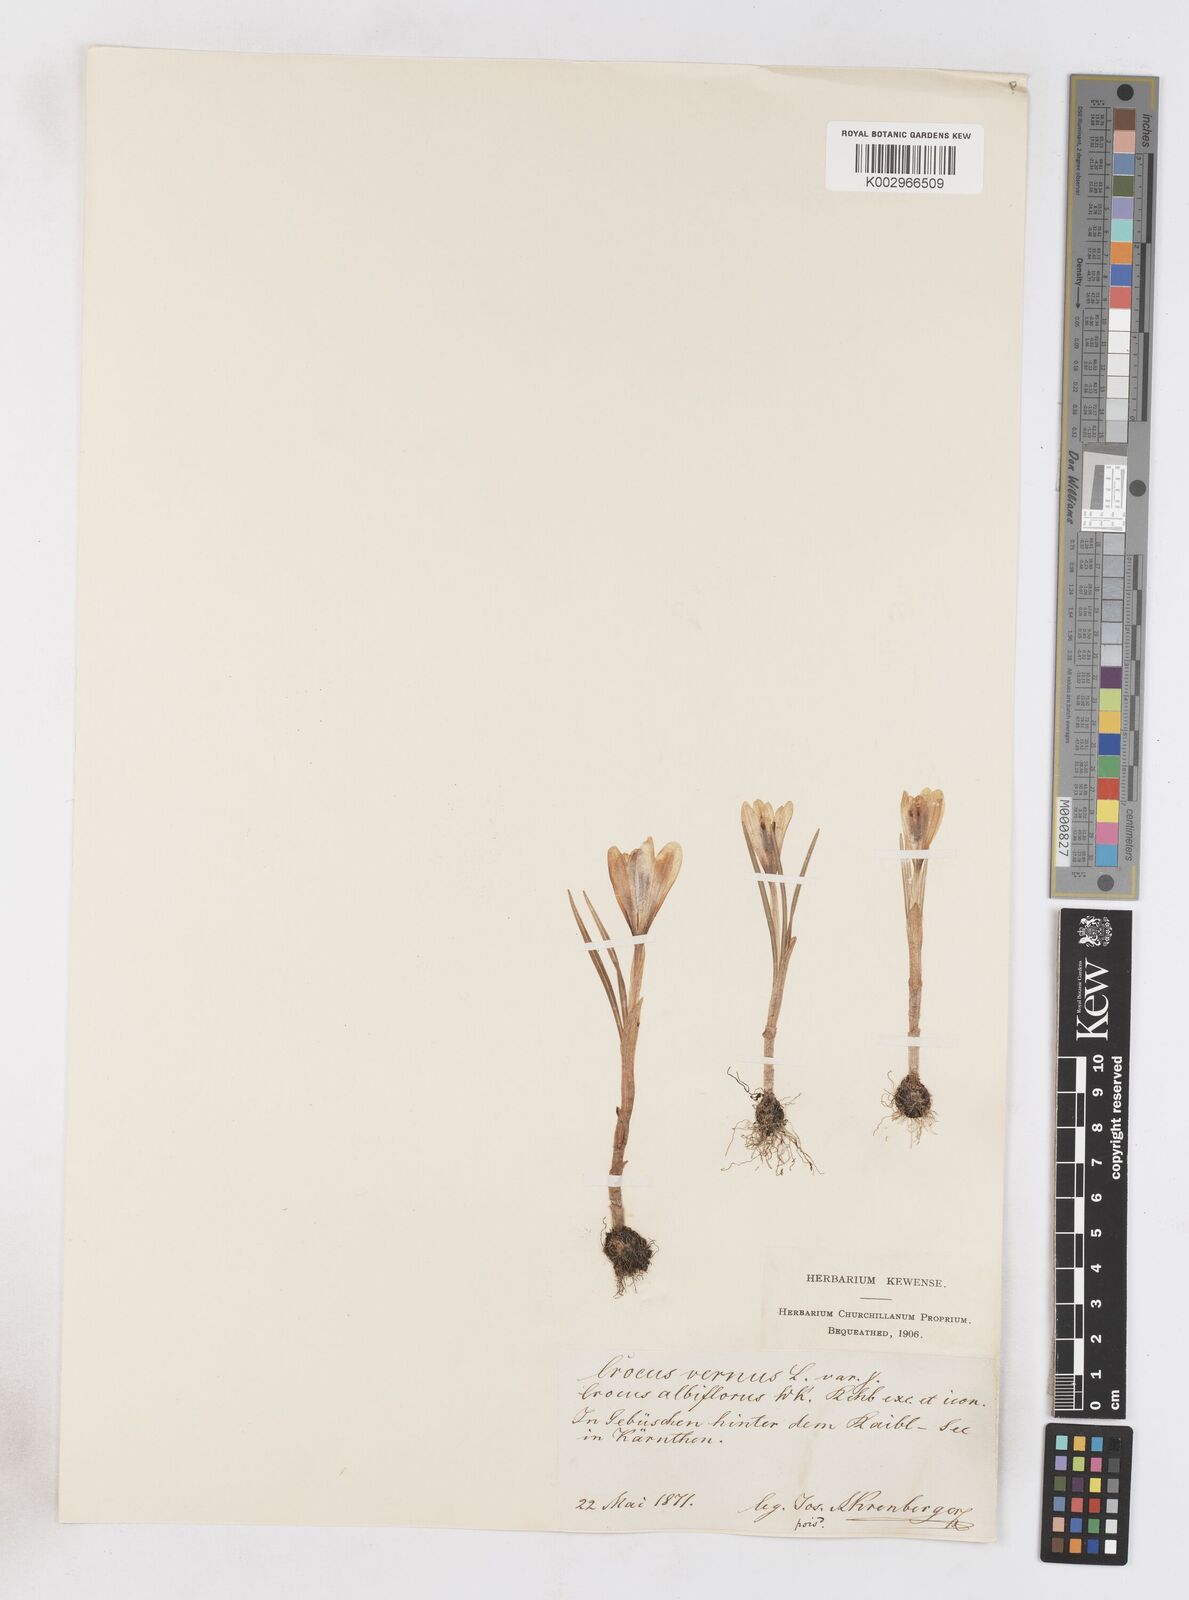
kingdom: Plantae
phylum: Tracheophyta
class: Liliopsida
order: Asparagales
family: Iridaceae
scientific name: Iridaceae
